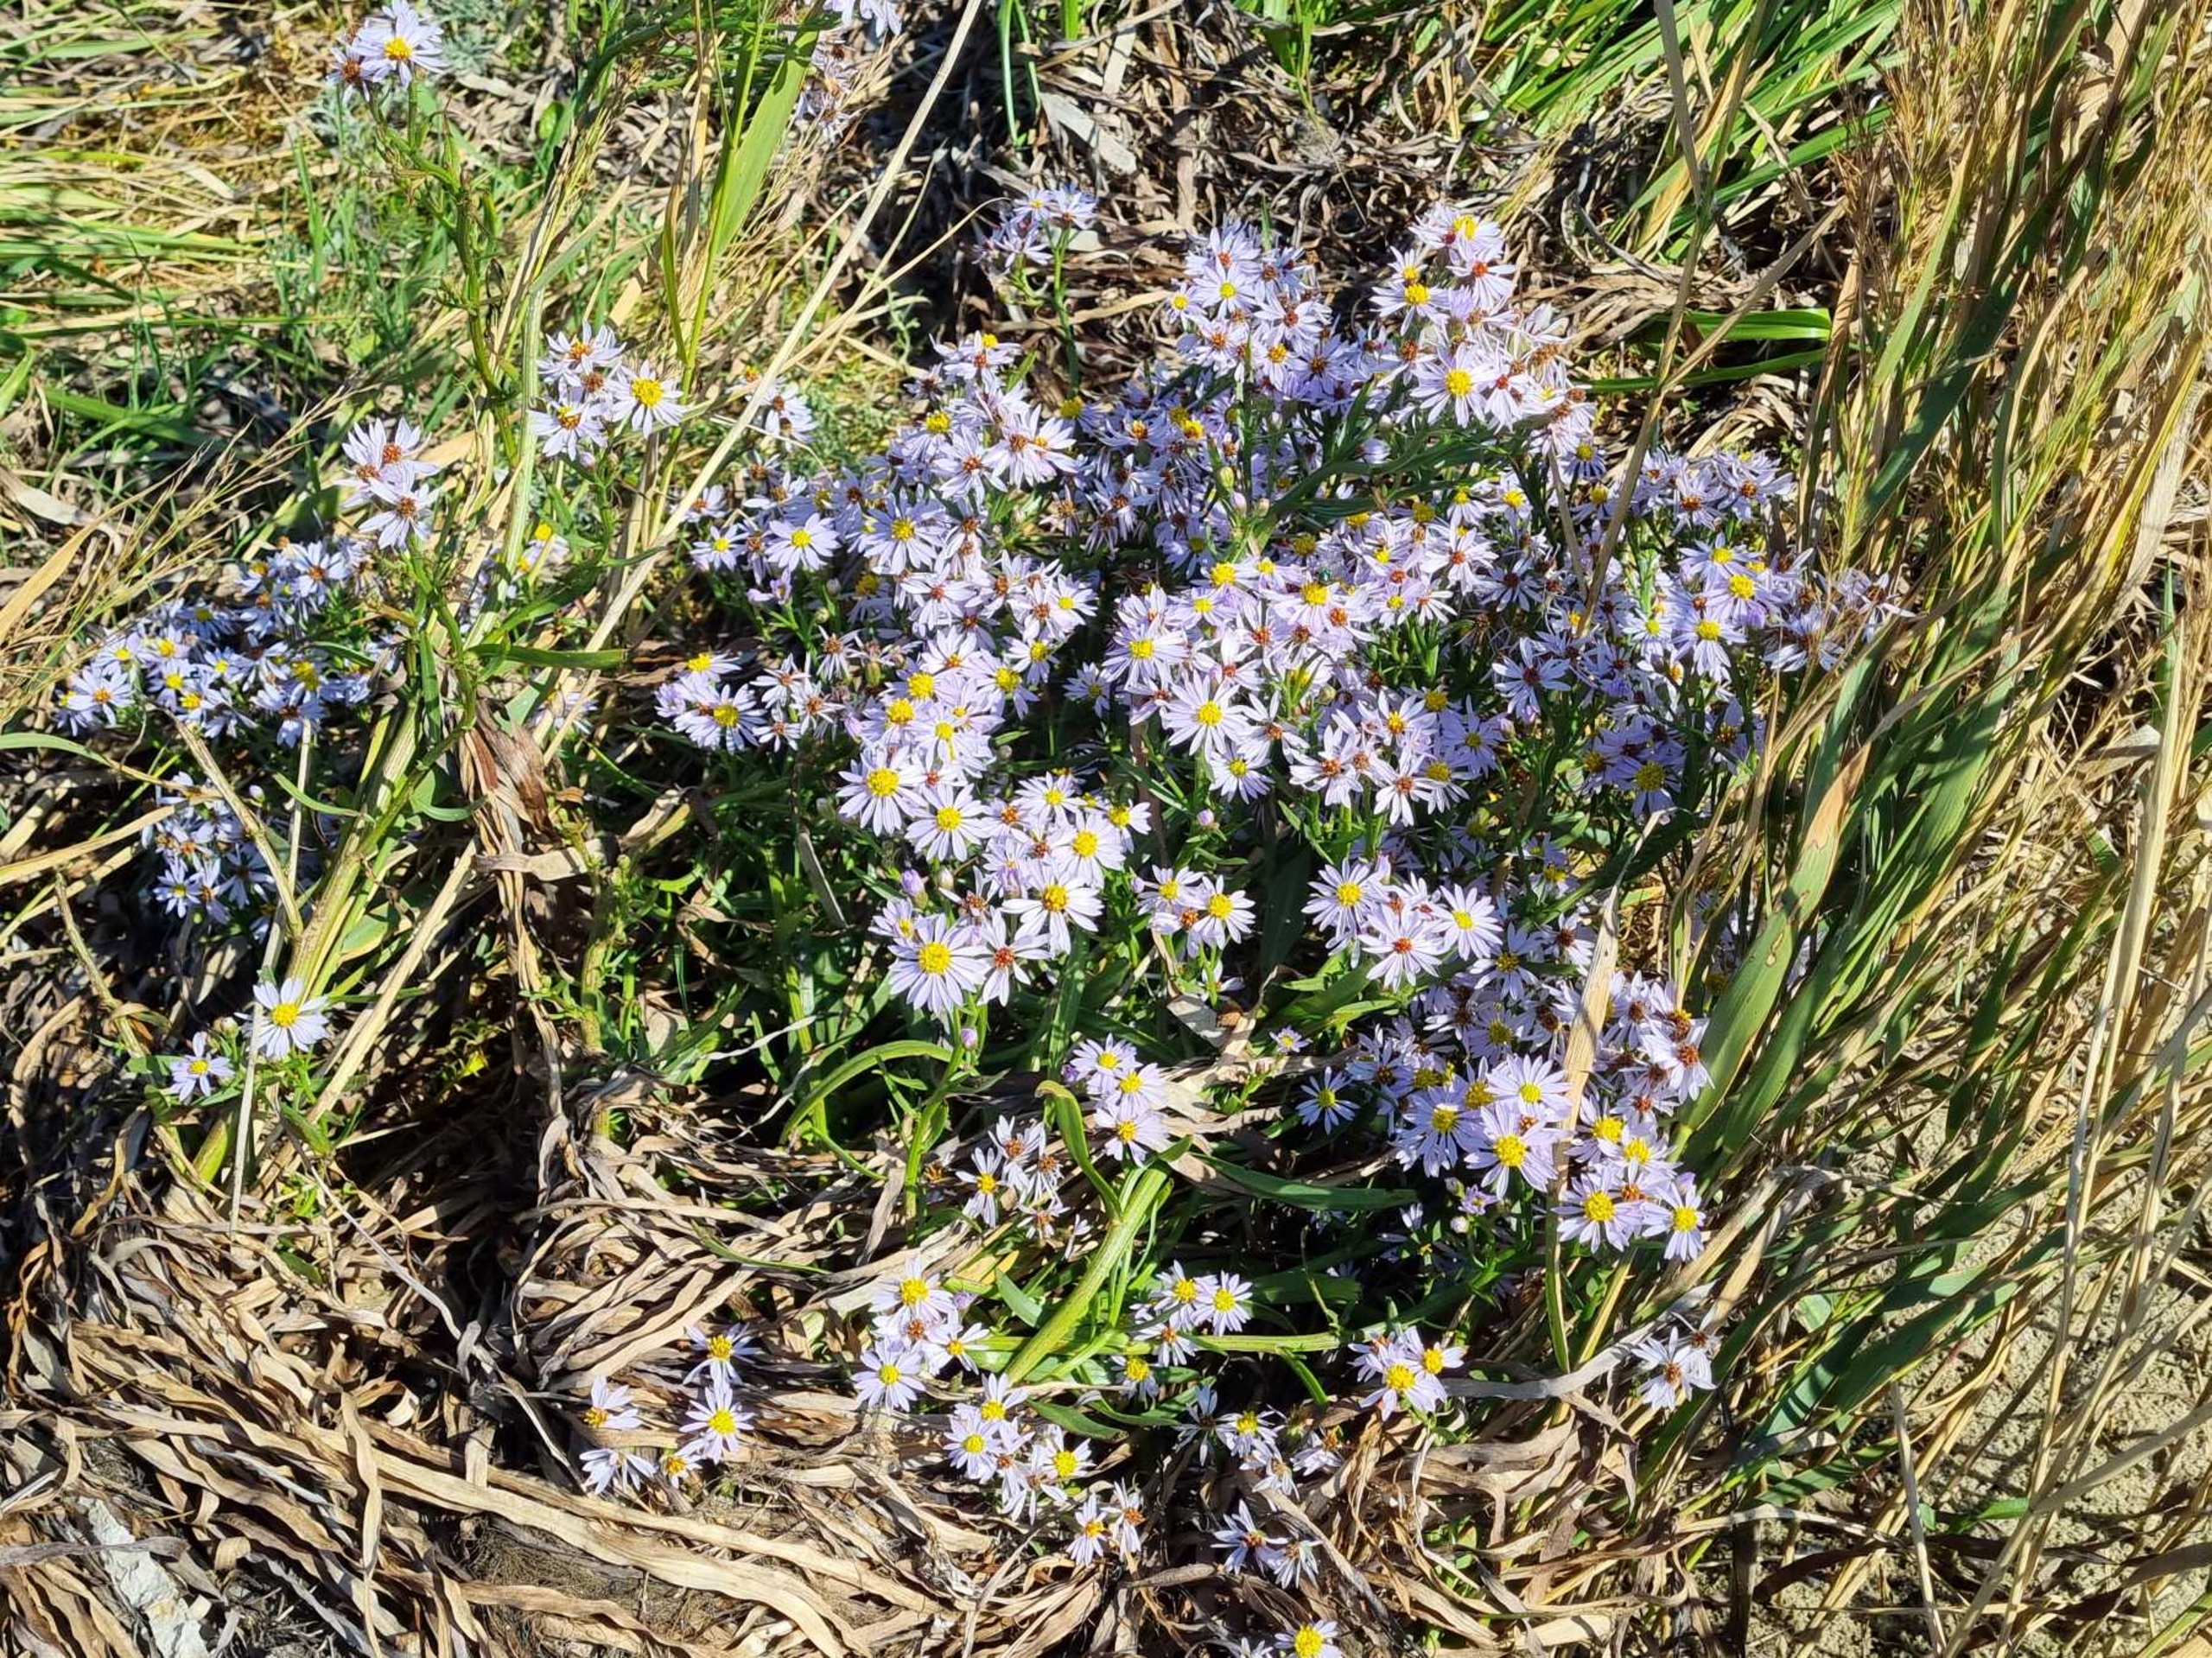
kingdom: Plantae
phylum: Tracheophyta
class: Magnoliopsida
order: Asterales
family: Asteraceae
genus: Tripolium
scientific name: Tripolium pannonicum
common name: Strandasters
